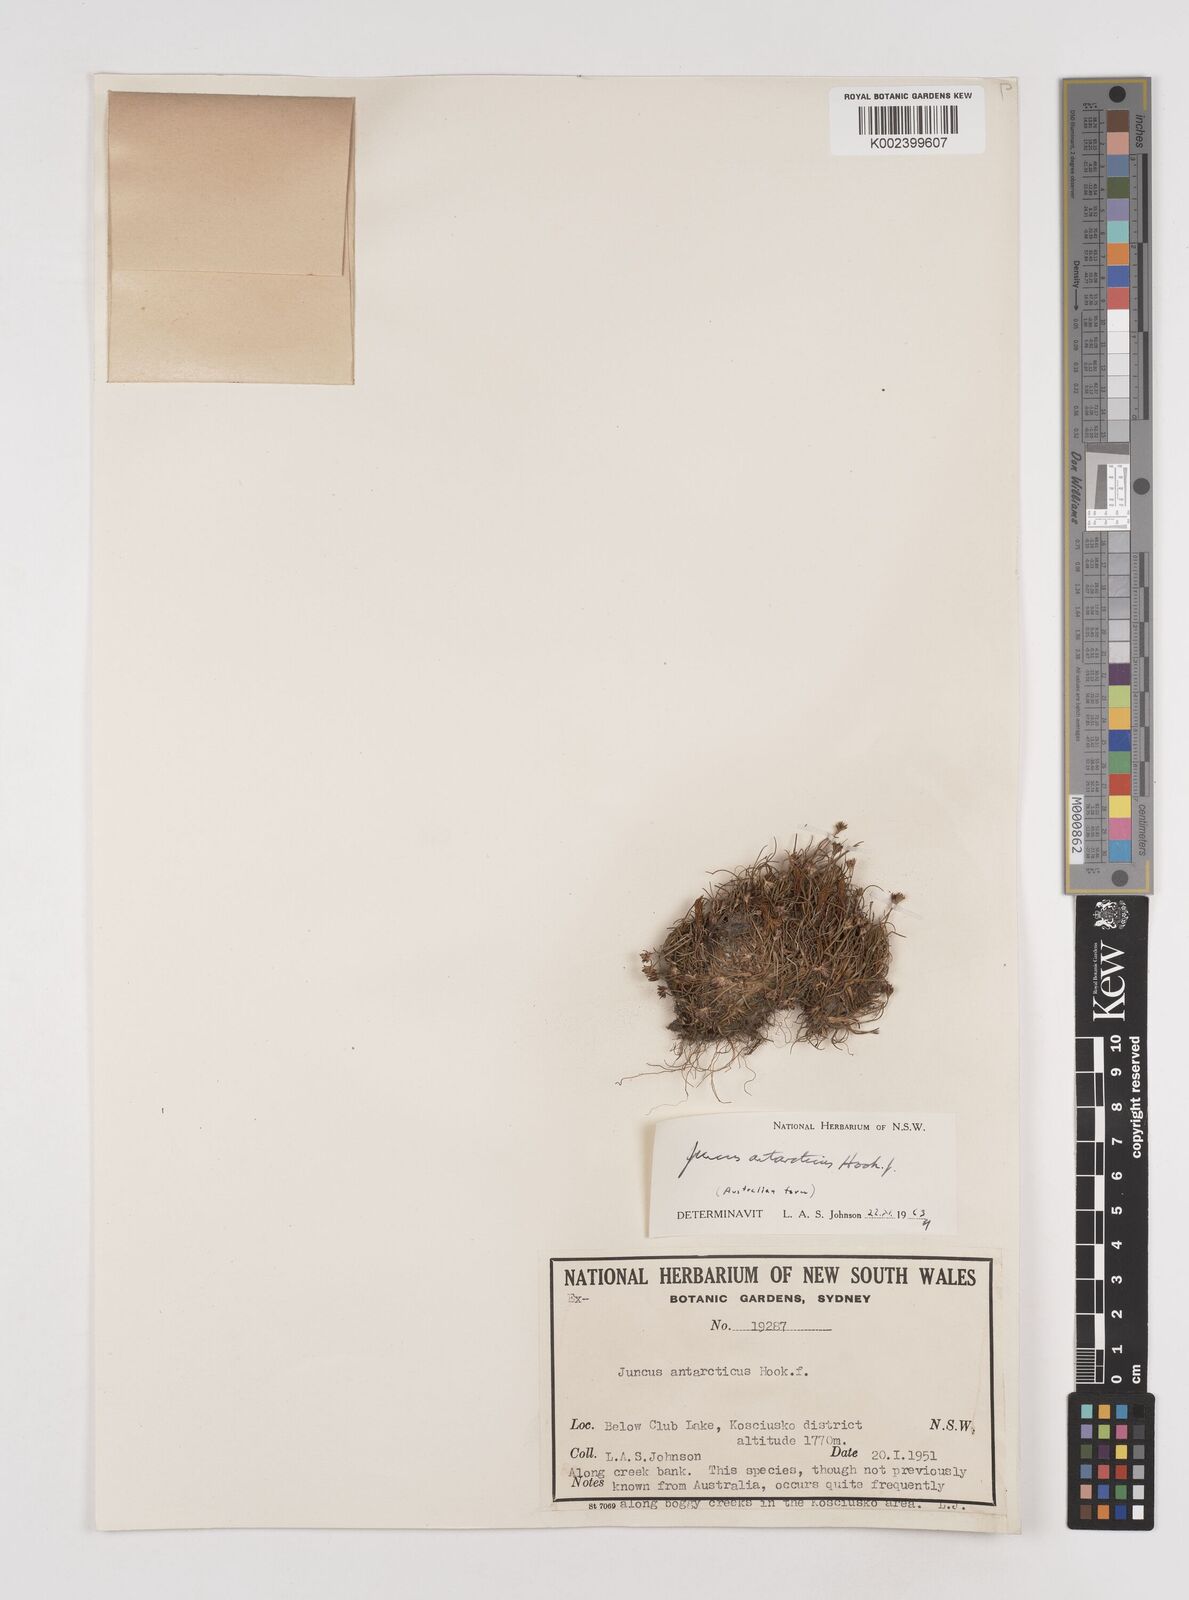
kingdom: Plantae
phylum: Tracheophyta
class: Liliopsida
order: Poales
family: Juncaceae
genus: Juncus
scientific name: Juncus antarcticus
